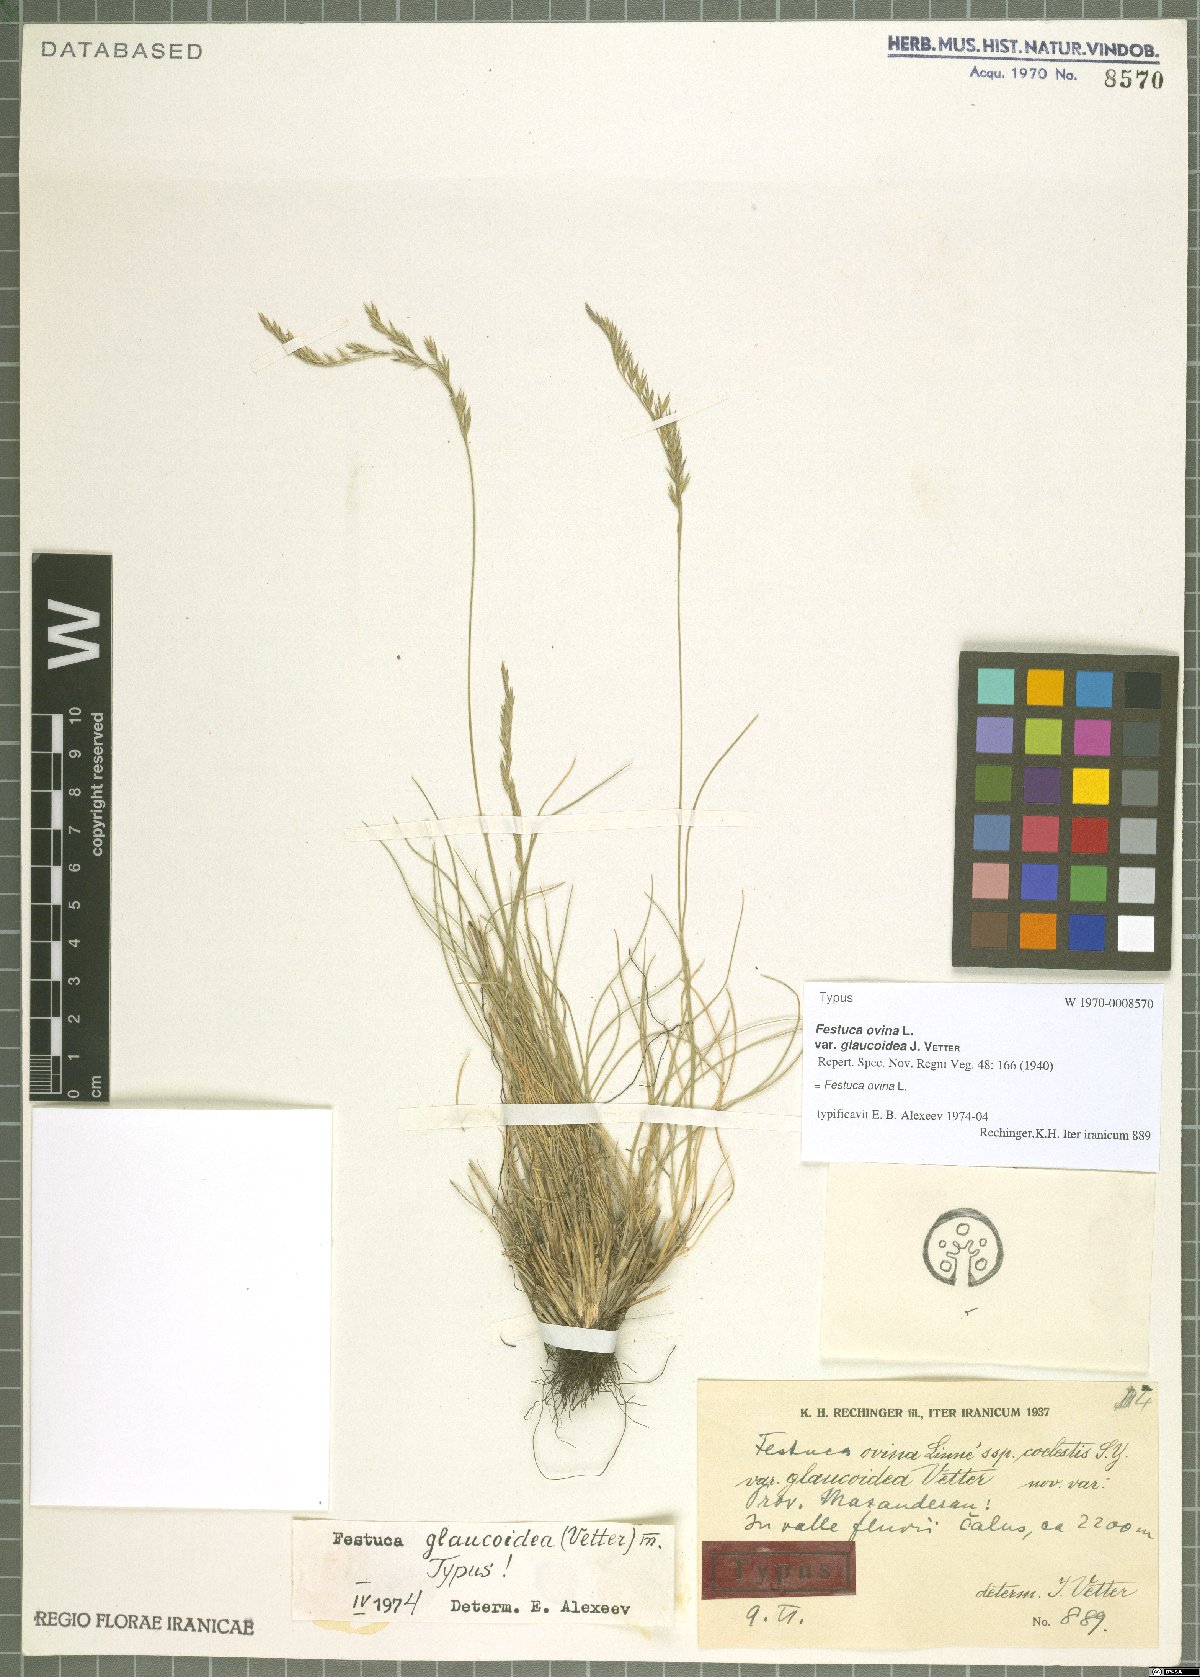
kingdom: Plantae
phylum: Tracheophyta
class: Liliopsida
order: Poales
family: Poaceae
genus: Festuca
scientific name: Festuca ovina
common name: Sheep fescue
